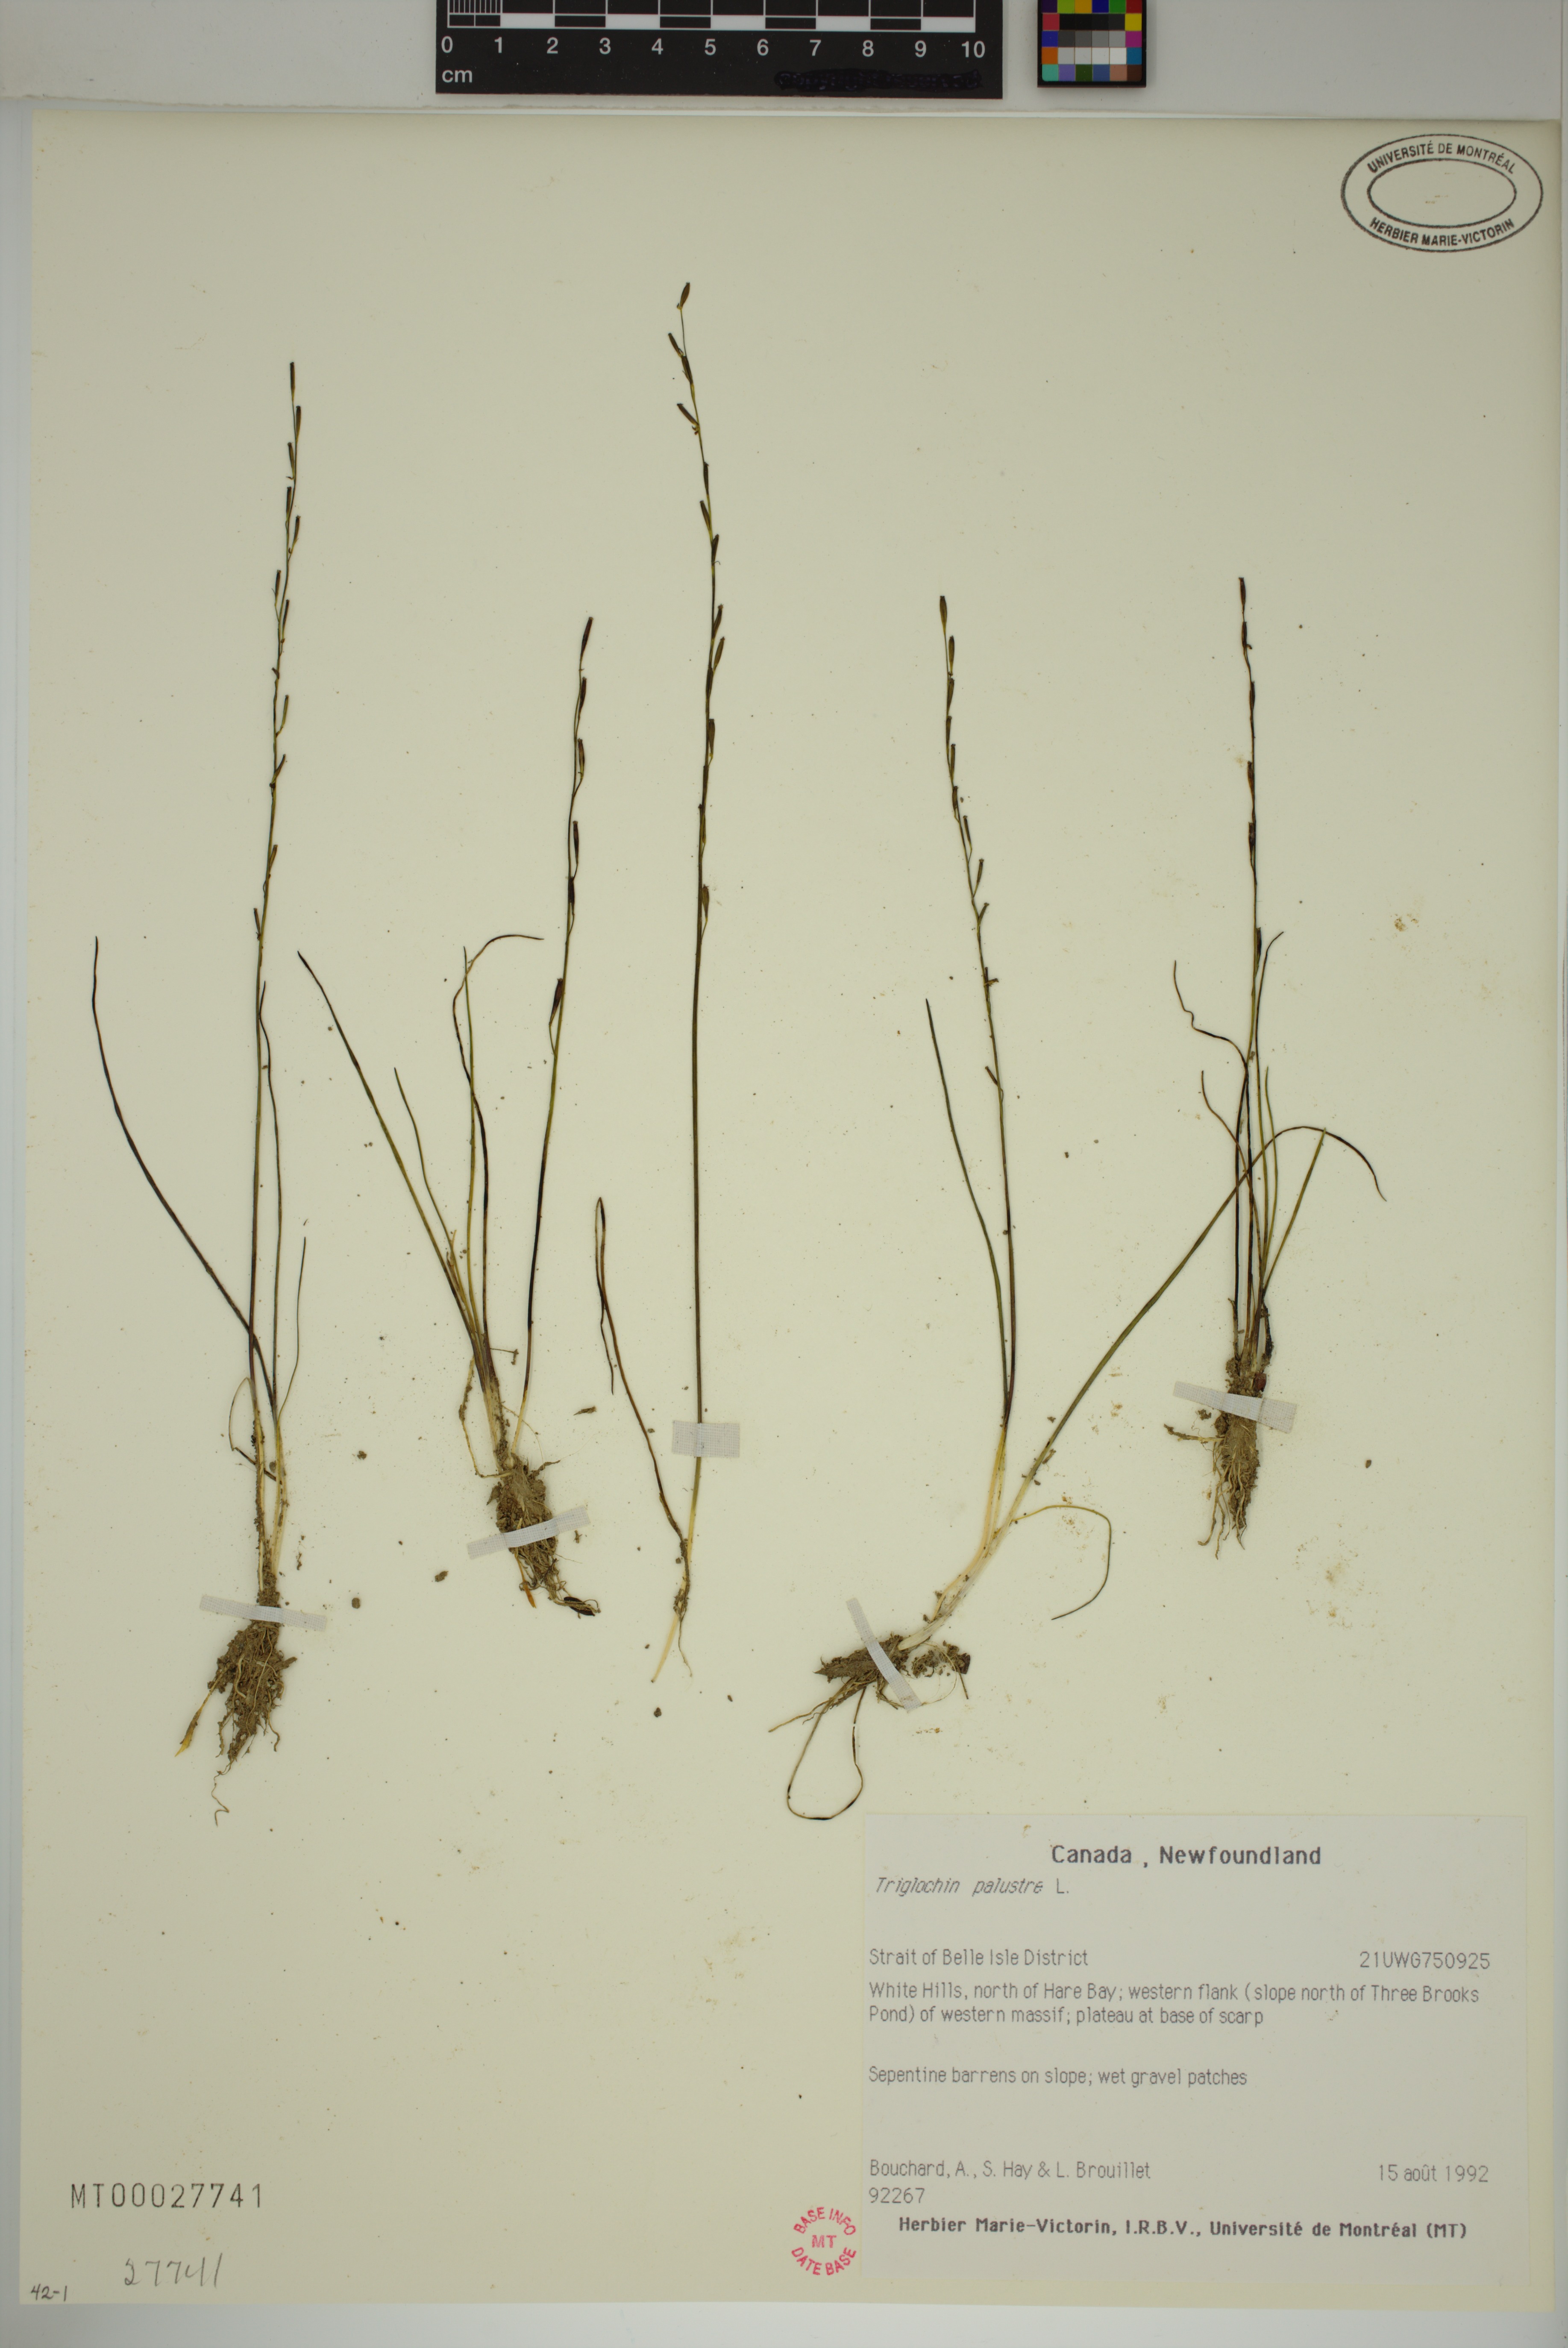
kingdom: Plantae
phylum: Tracheophyta
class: Liliopsida
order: Alismatales
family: Juncaginaceae
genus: Triglochin
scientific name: Triglochin palustris
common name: Marsh arrowgrass
